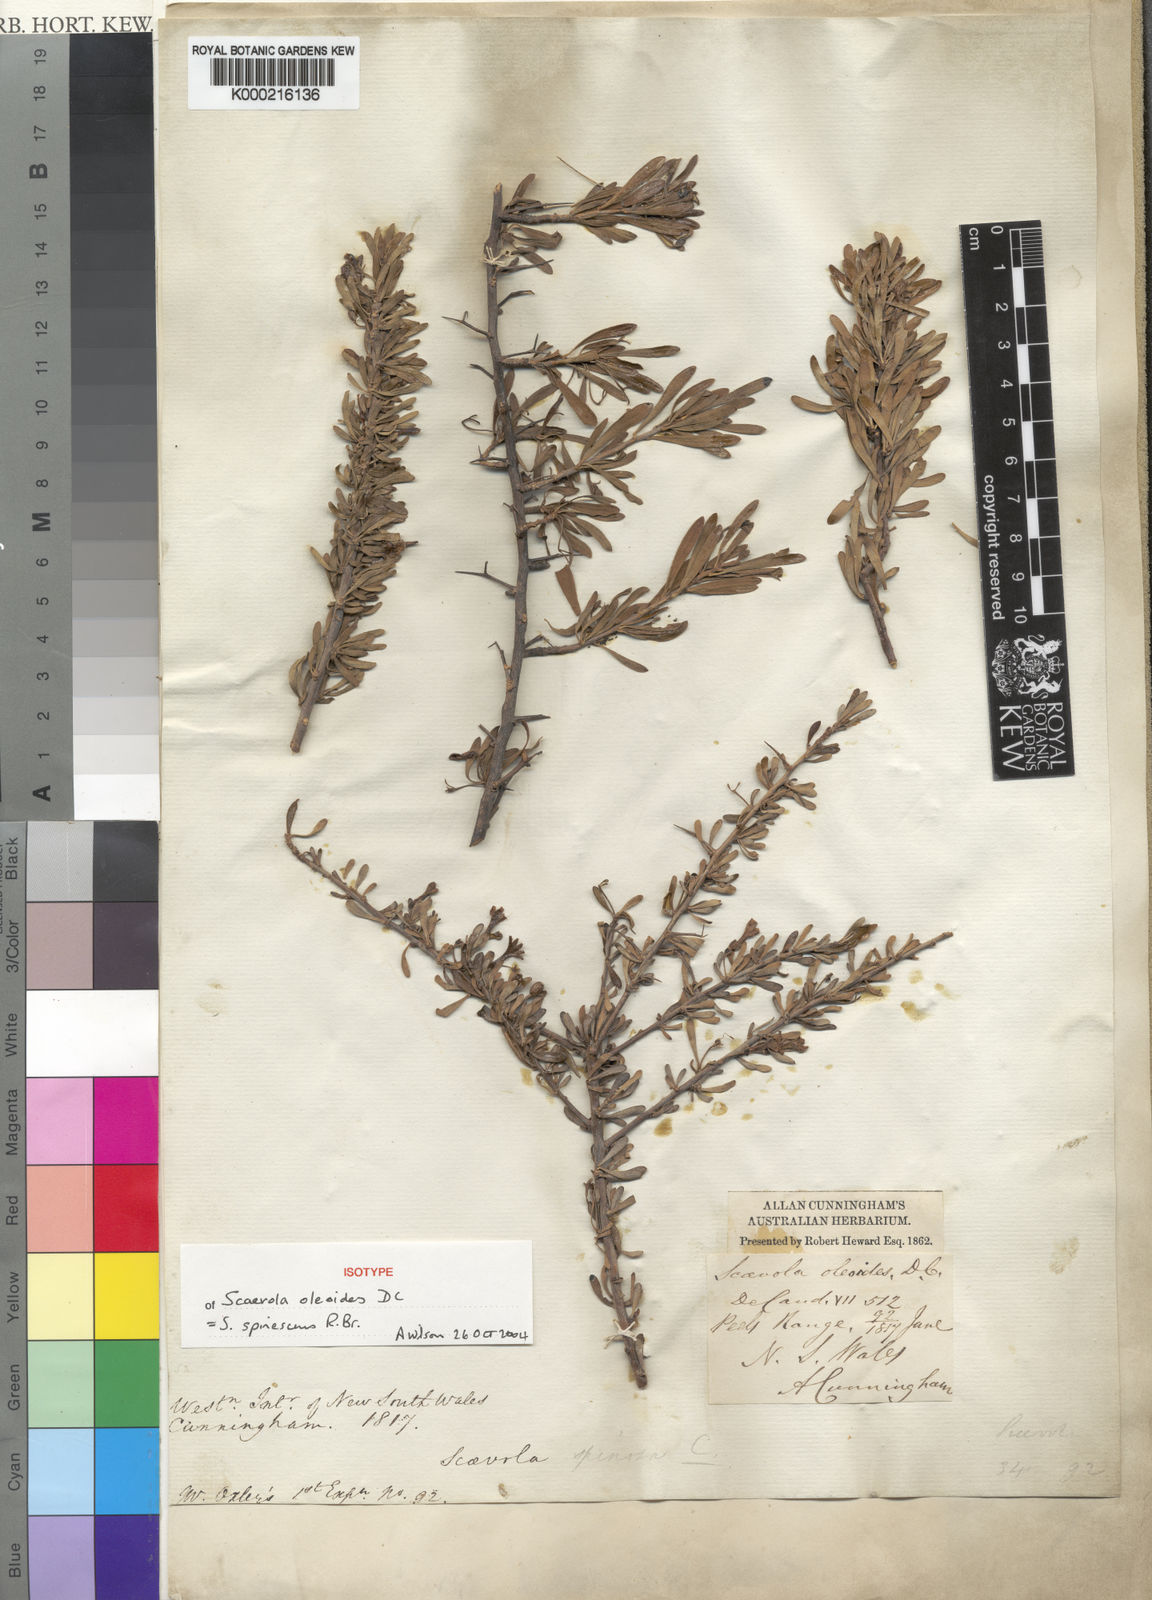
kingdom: Plantae
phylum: Tracheophyta
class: Magnoliopsida
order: Asterales
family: Goodeniaceae
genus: Scaevola
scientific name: Scaevola spinescens
